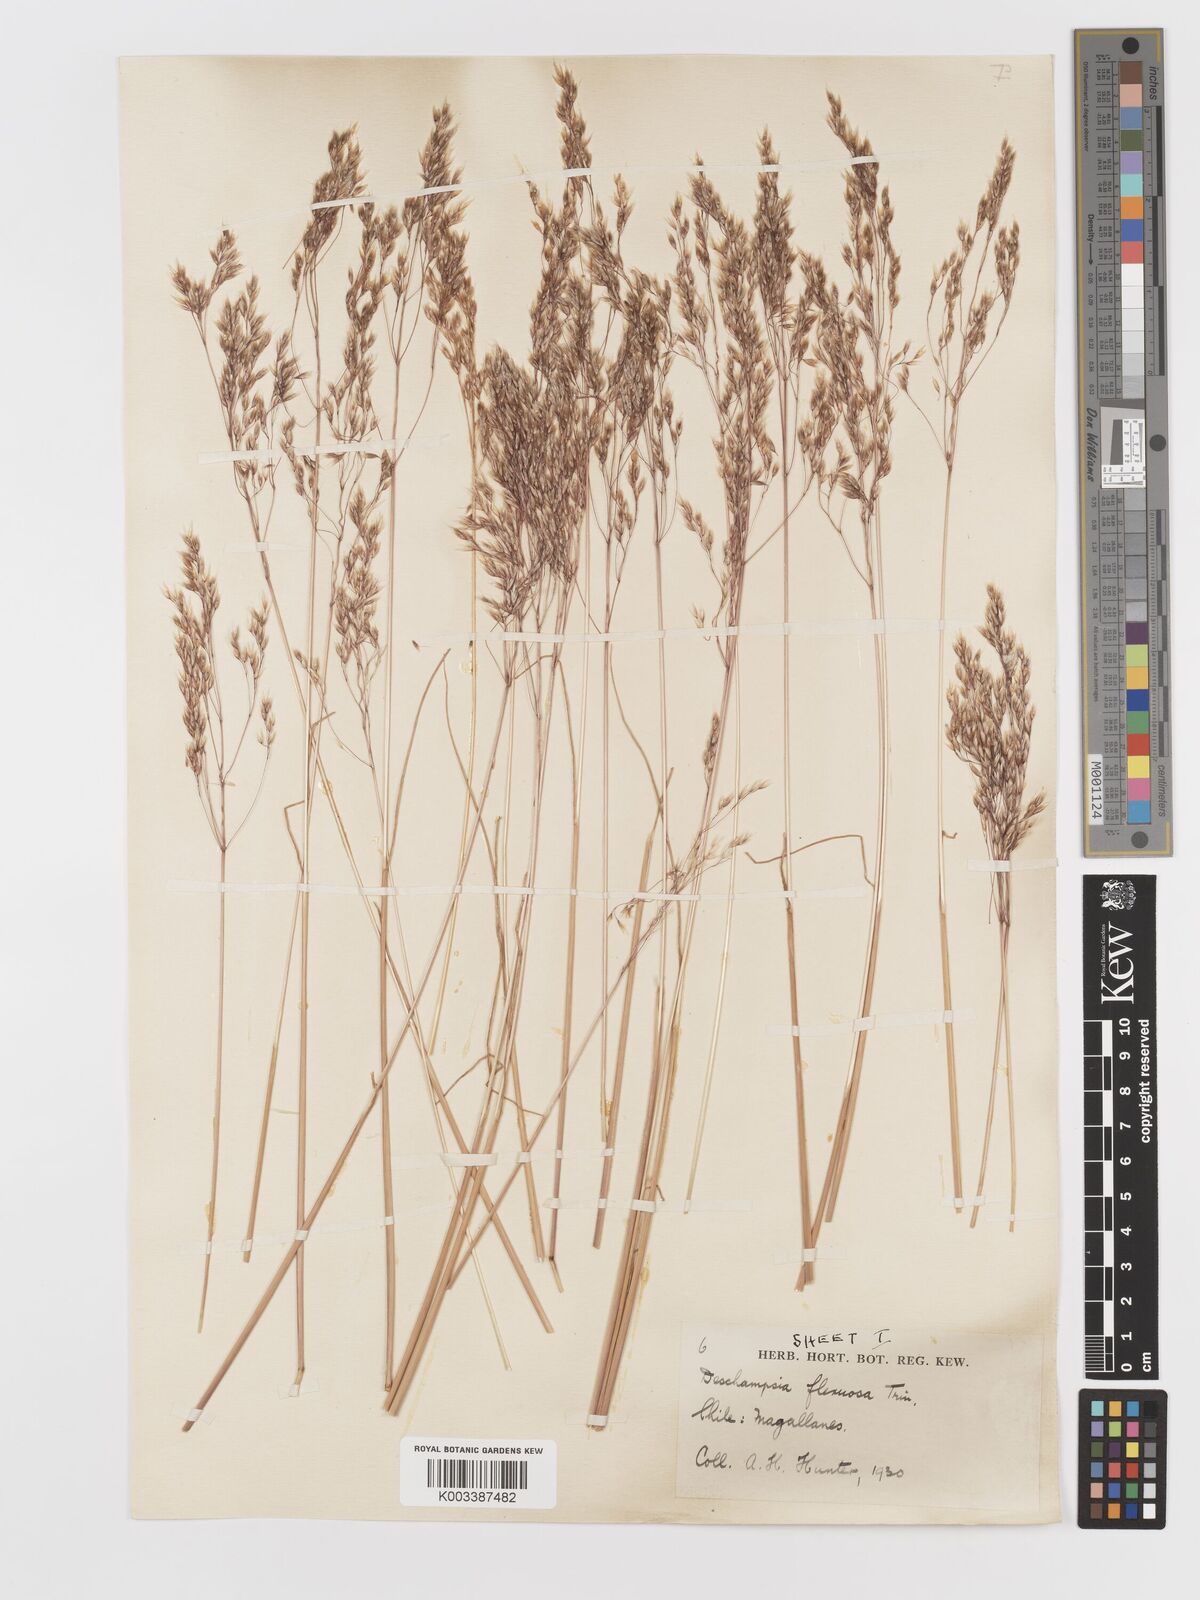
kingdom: Plantae
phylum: Tracheophyta
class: Liliopsida
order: Poales
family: Poaceae
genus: Avenella
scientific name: Avenella flexuosa
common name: Wavy hairgrass
